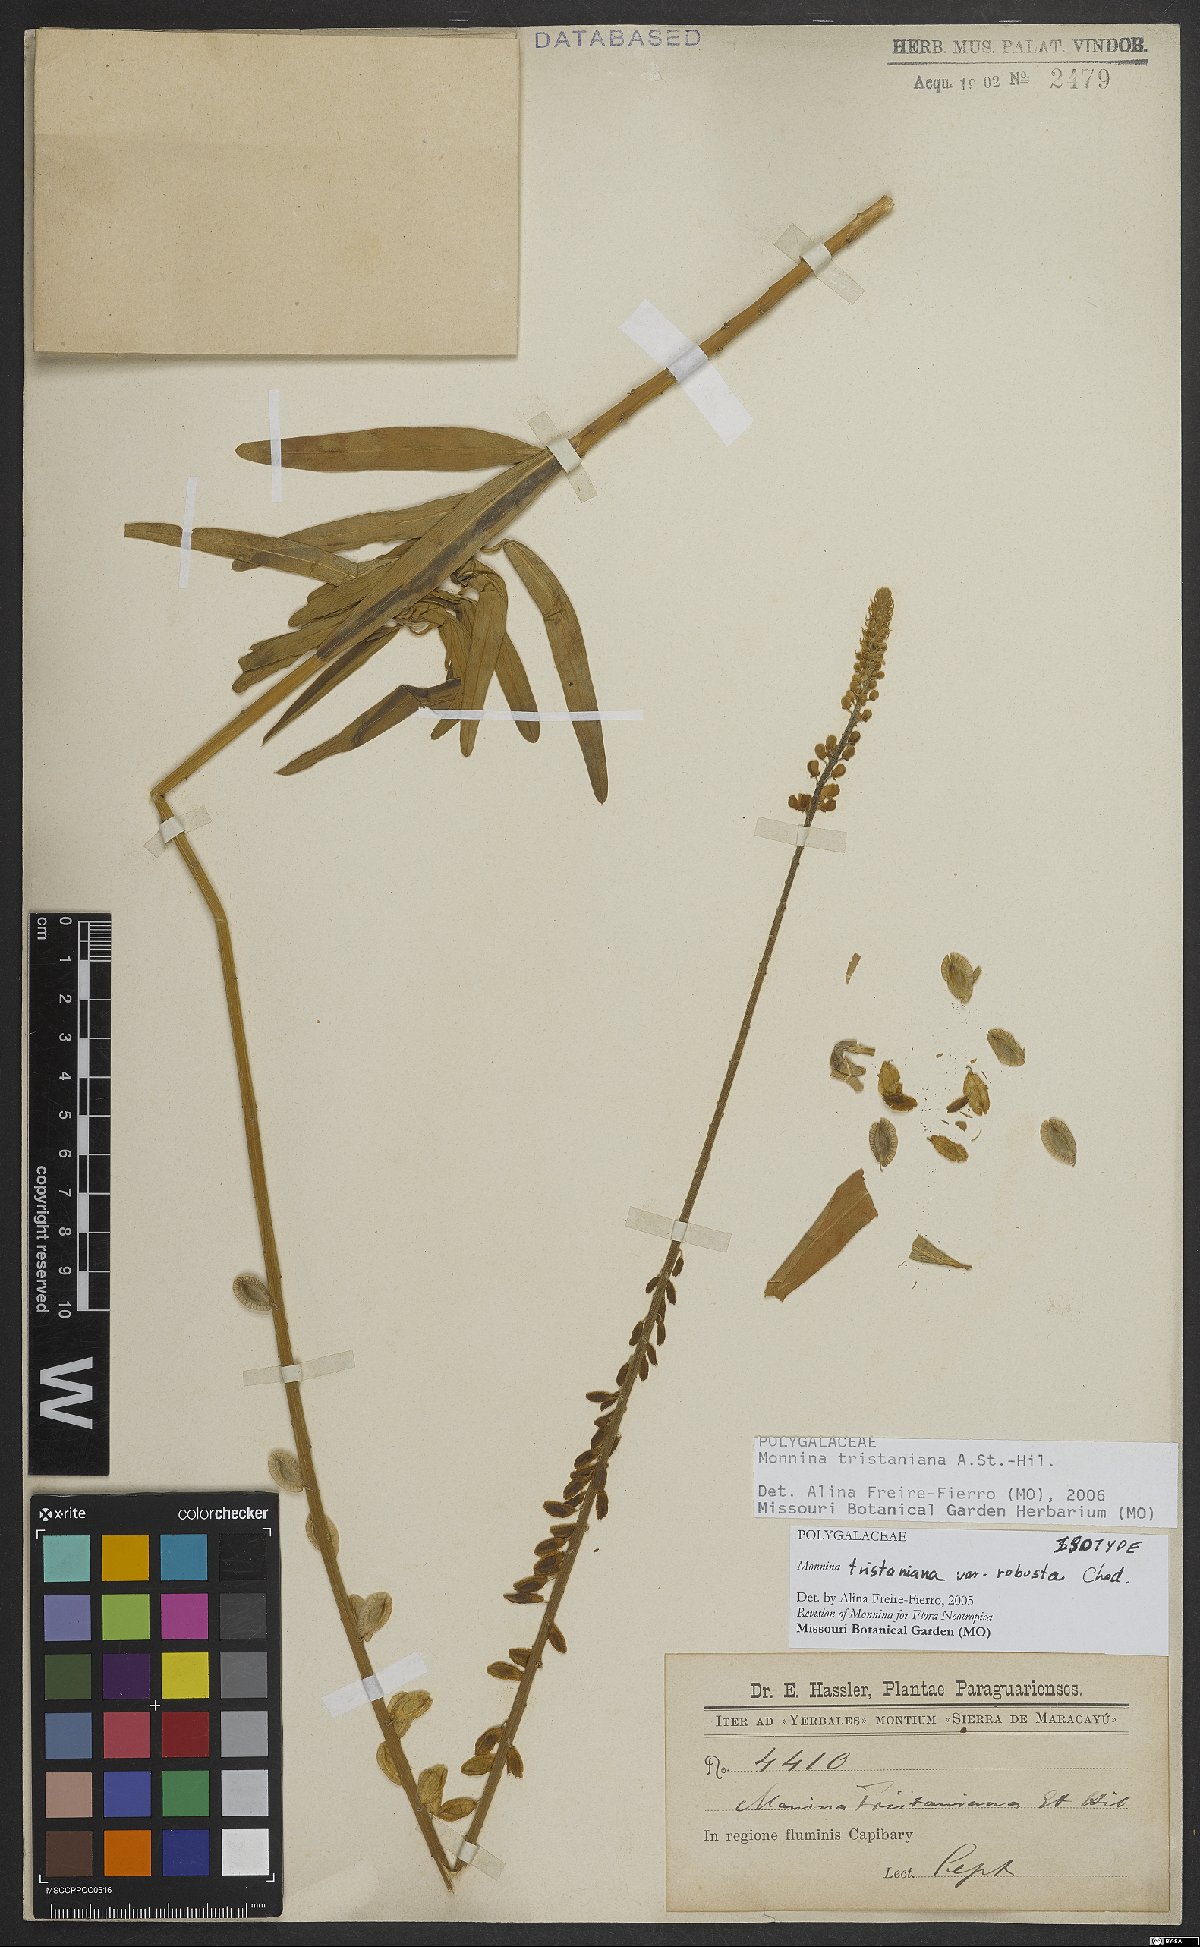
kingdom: Plantae
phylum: Tracheophyta
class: Magnoliopsida
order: Fabales
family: Polygalaceae
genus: Monnina
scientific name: Monnina tristaniana
